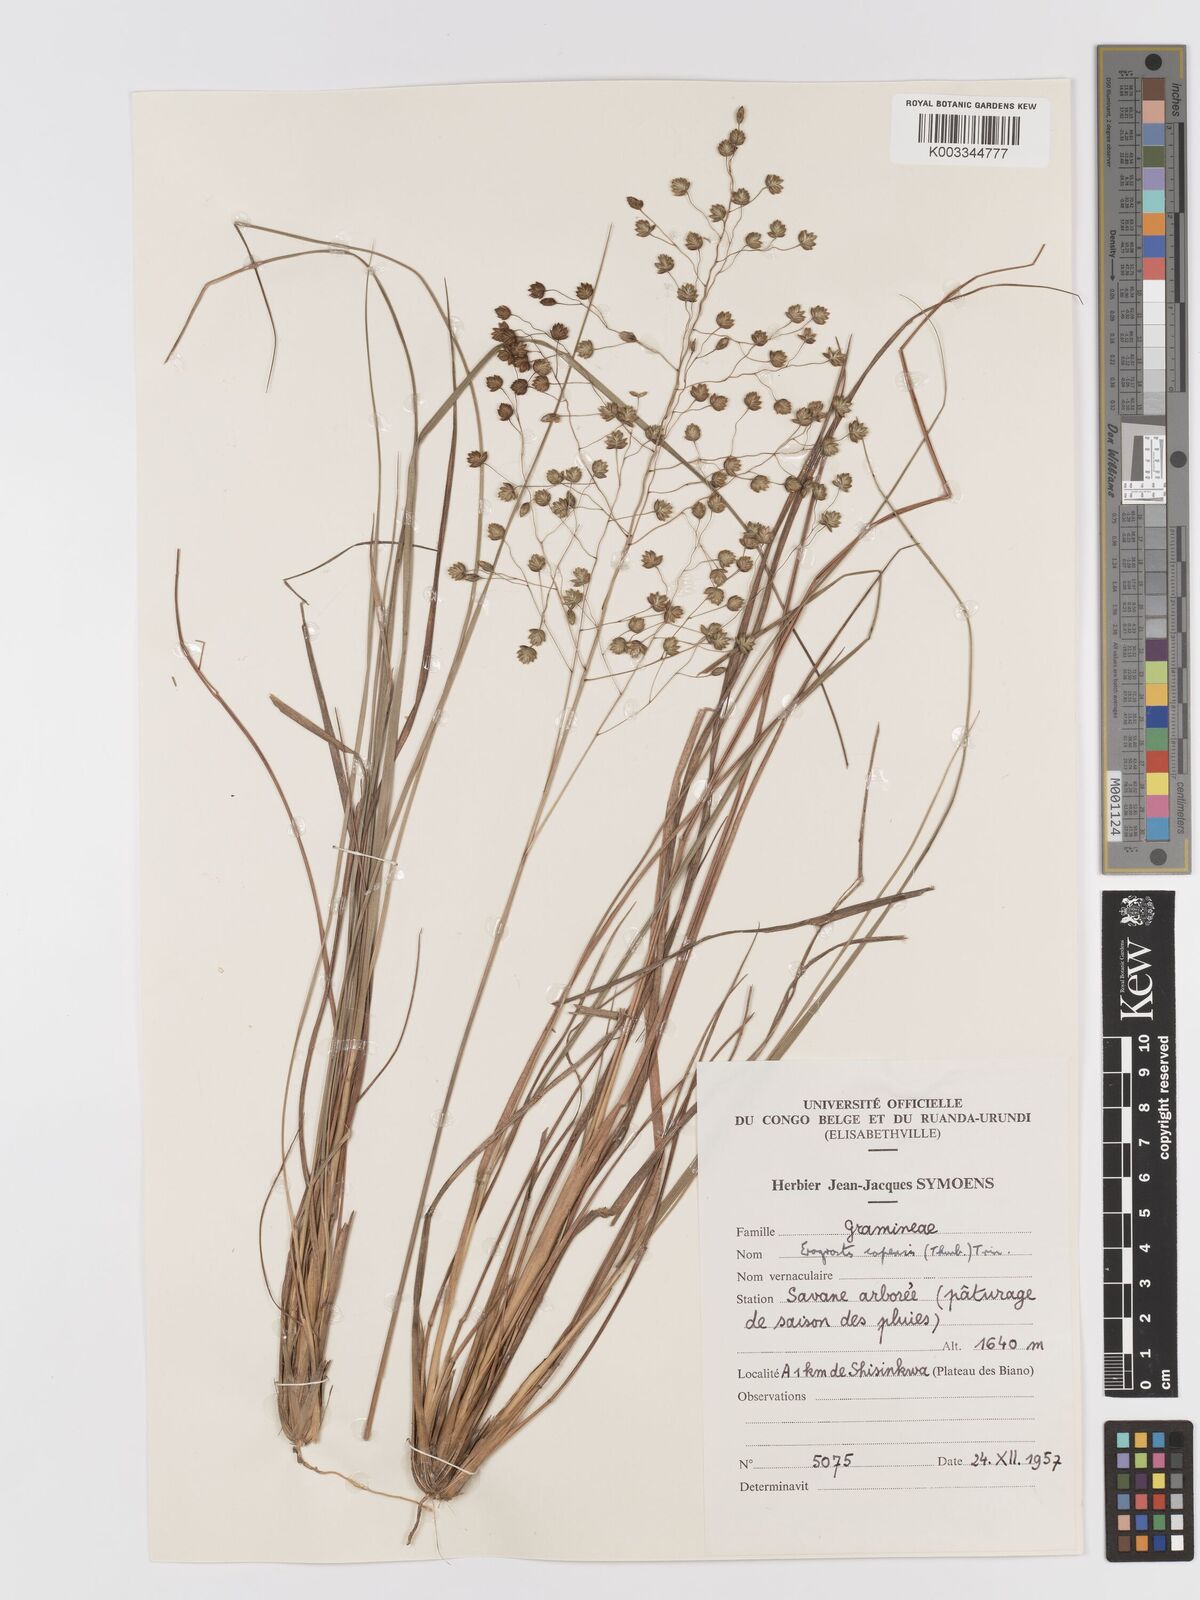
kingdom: Plantae
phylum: Tracheophyta
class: Liliopsida
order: Poales
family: Poaceae
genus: Eragrostis
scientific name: Eragrostis thollonii
